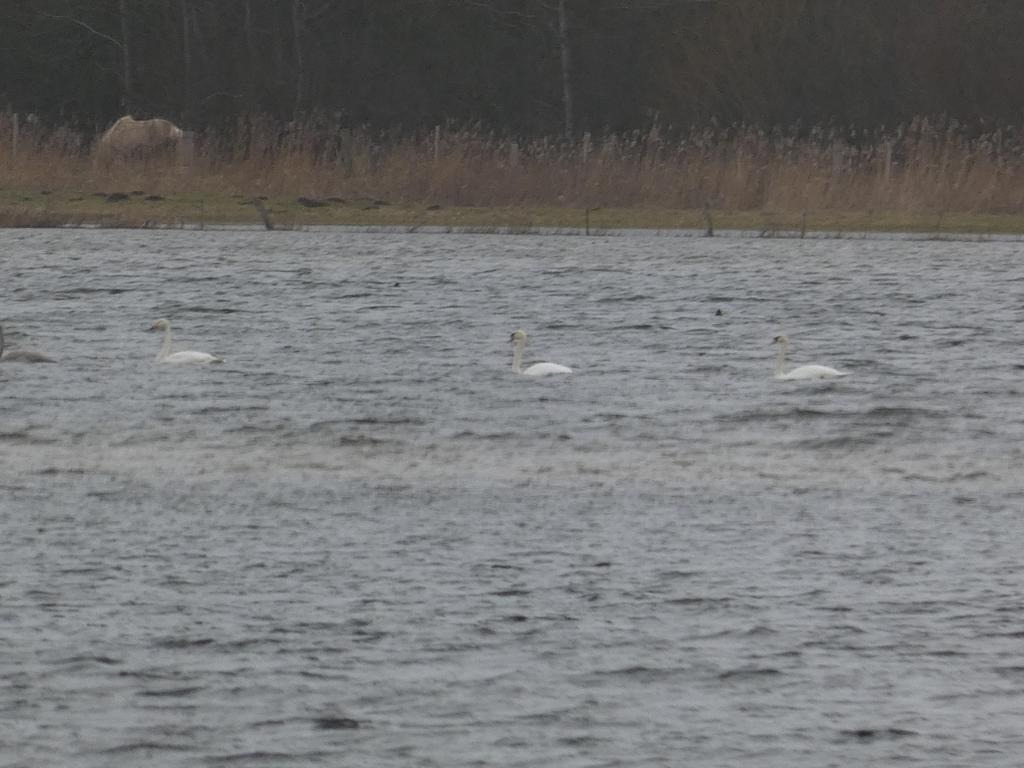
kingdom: Animalia
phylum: Chordata
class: Aves
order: Anseriformes
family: Anatidae
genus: Cygnus
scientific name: Cygnus olor
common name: Knopsvane
